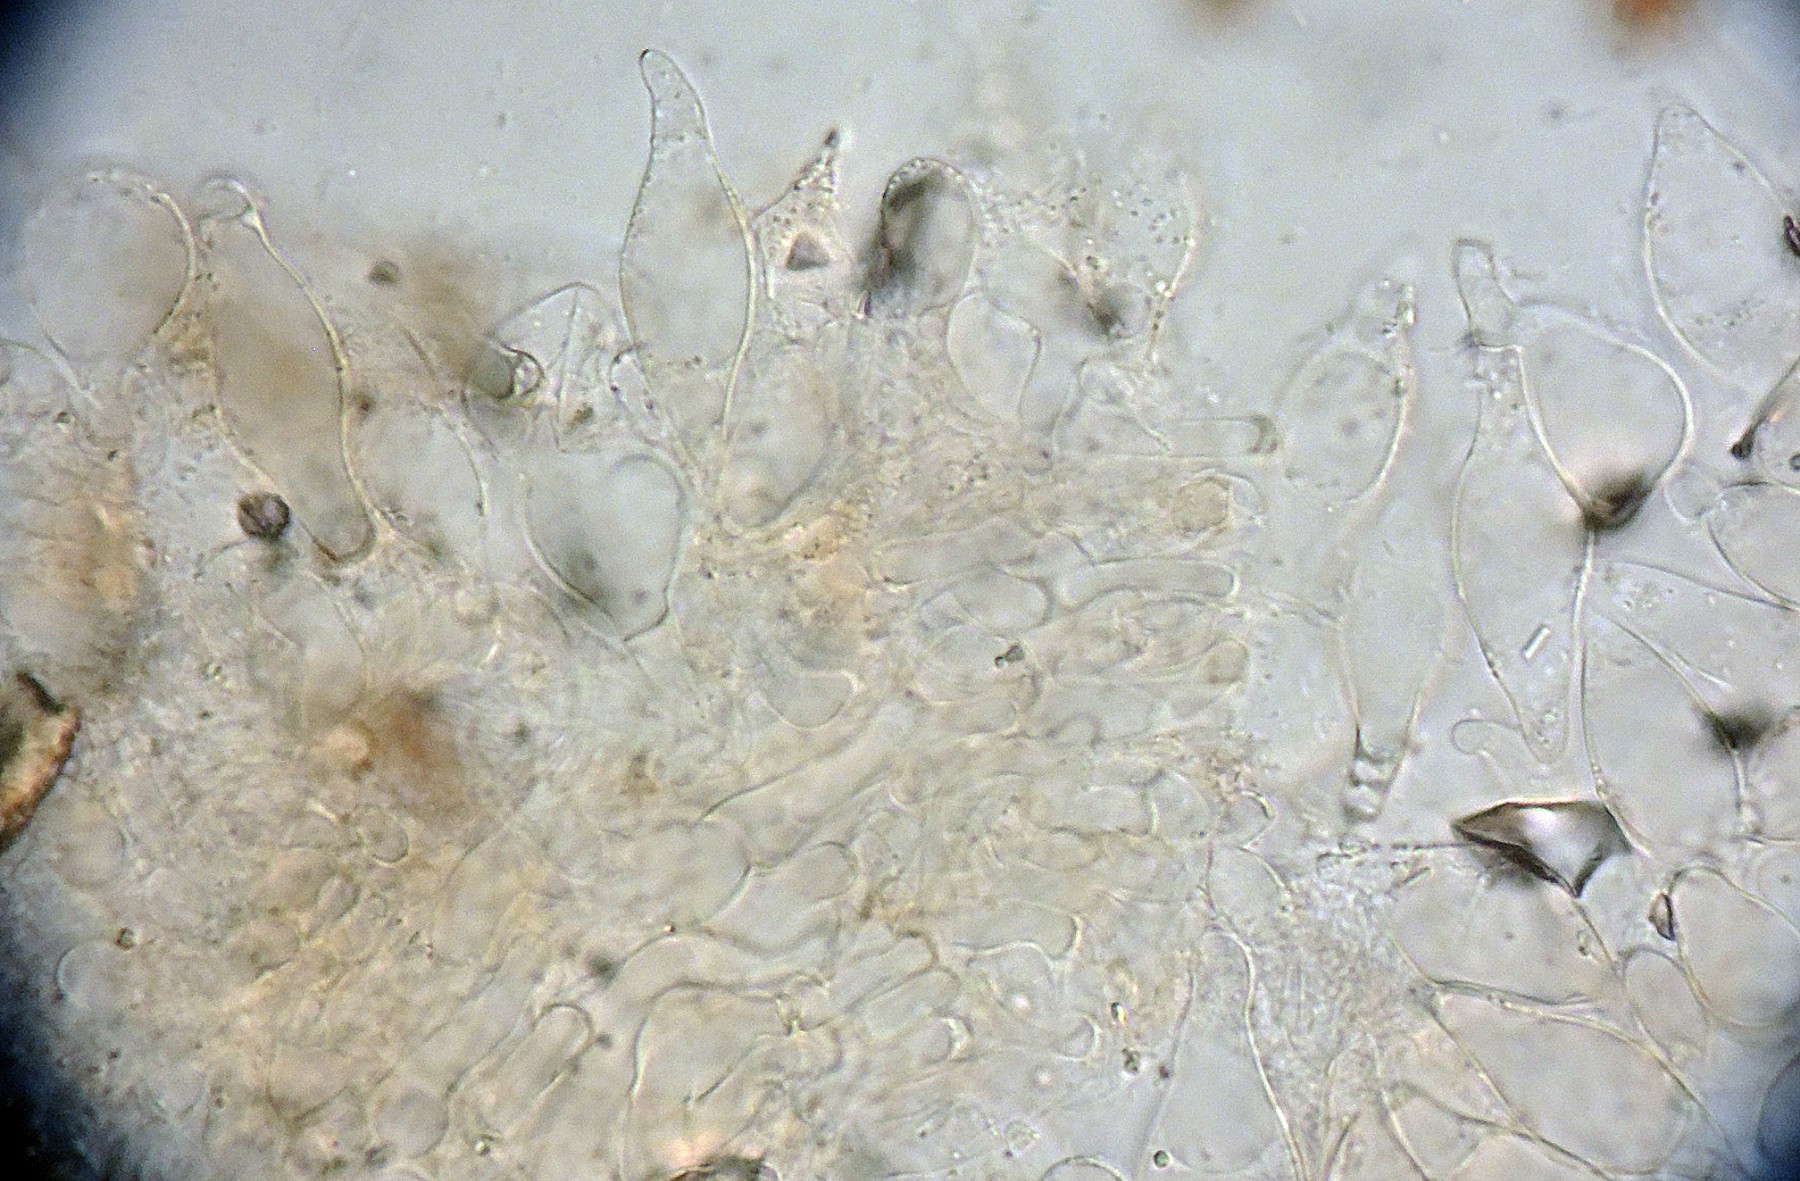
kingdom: Fungi
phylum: Basidiomycota
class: Agaricomycetes
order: Agaricales
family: Psathyrellaceae
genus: Coprinopsis
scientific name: Coprinopsis canoceps
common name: gråhåret blækhat
